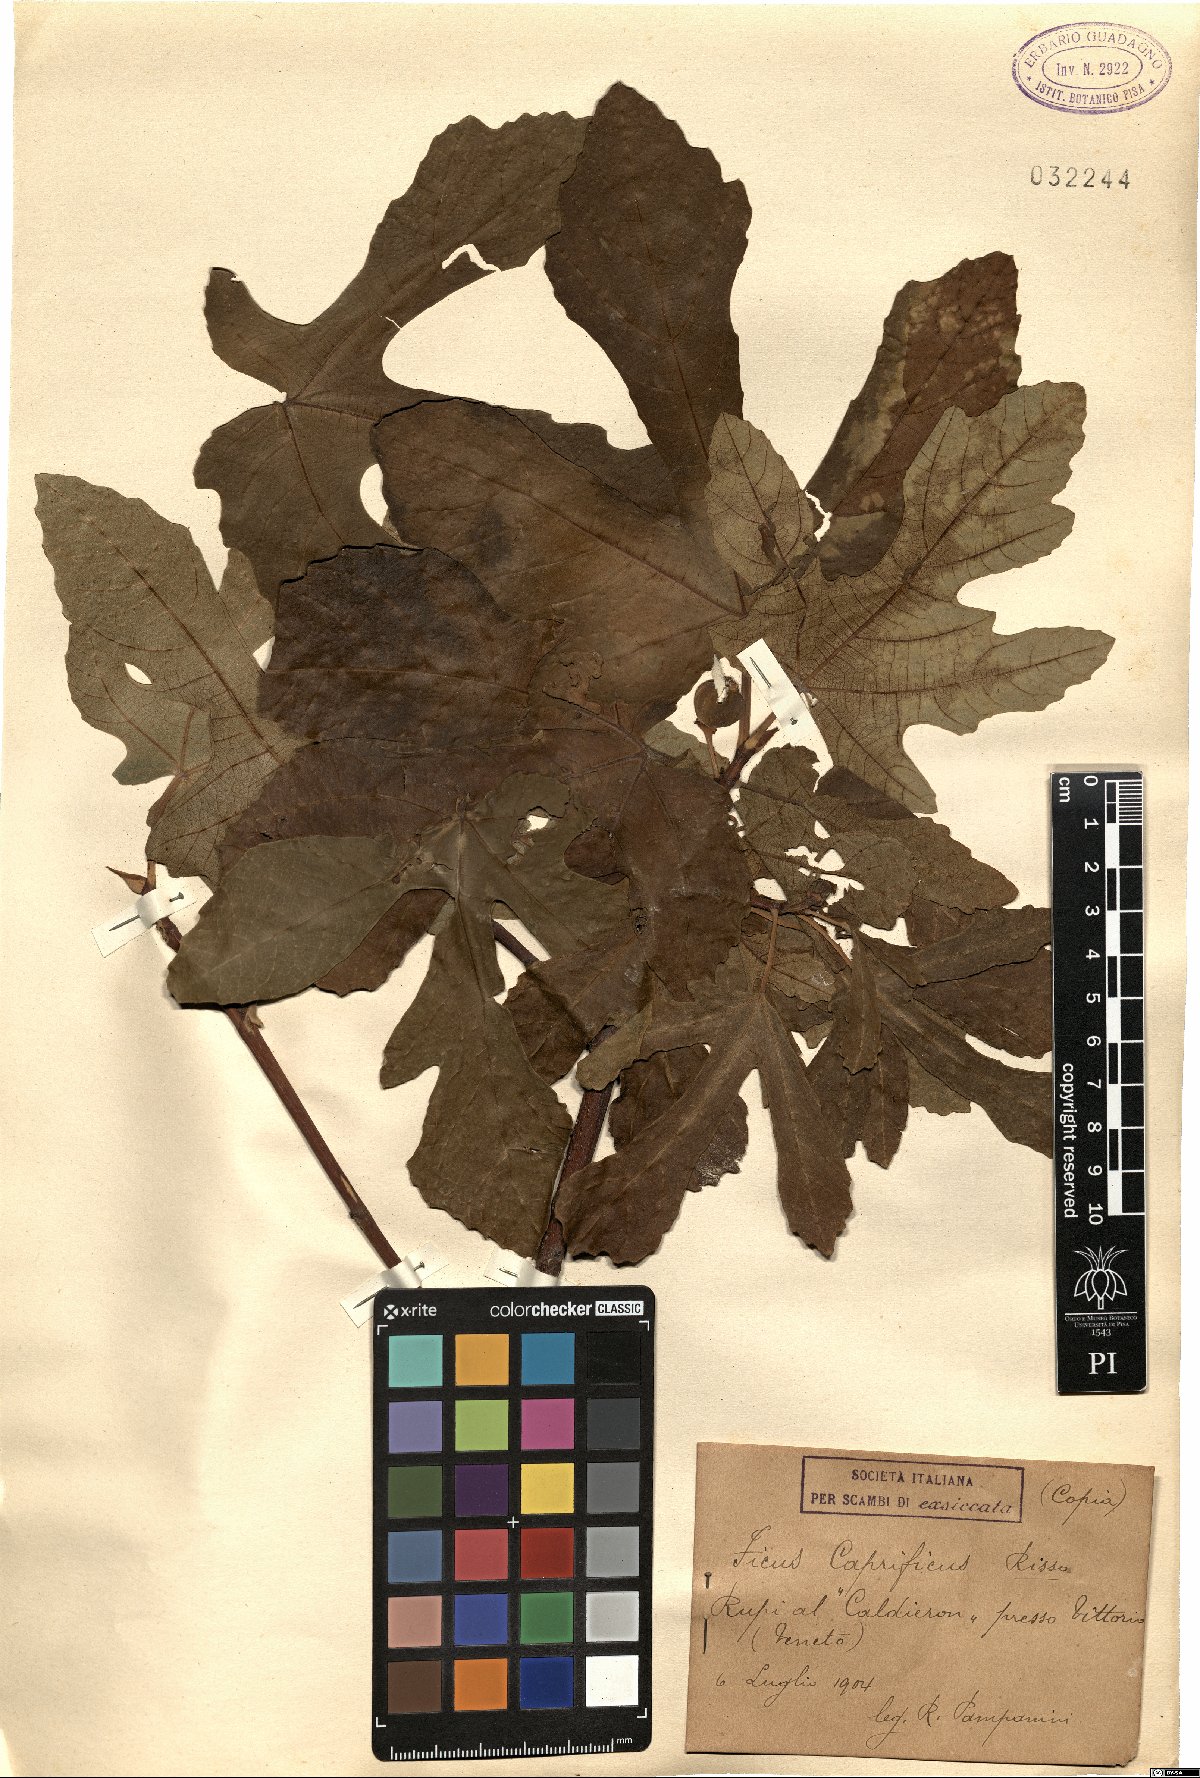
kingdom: Plantae
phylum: Tracheophyta
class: Magnoliopsida
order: Rosales
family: Moraceae
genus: Ficus
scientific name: Ficus carica
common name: Fig
